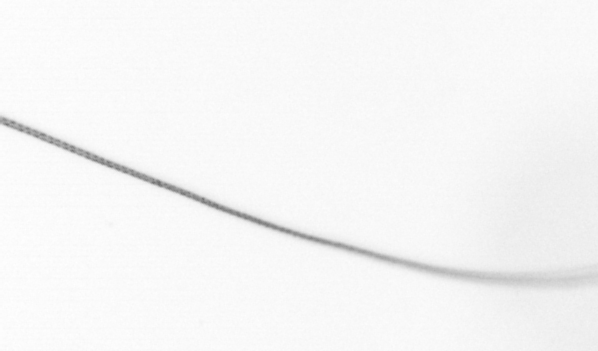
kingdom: Chromista
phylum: Ochrophyta
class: Bacillariophyceae
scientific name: Bacillariophyceae
